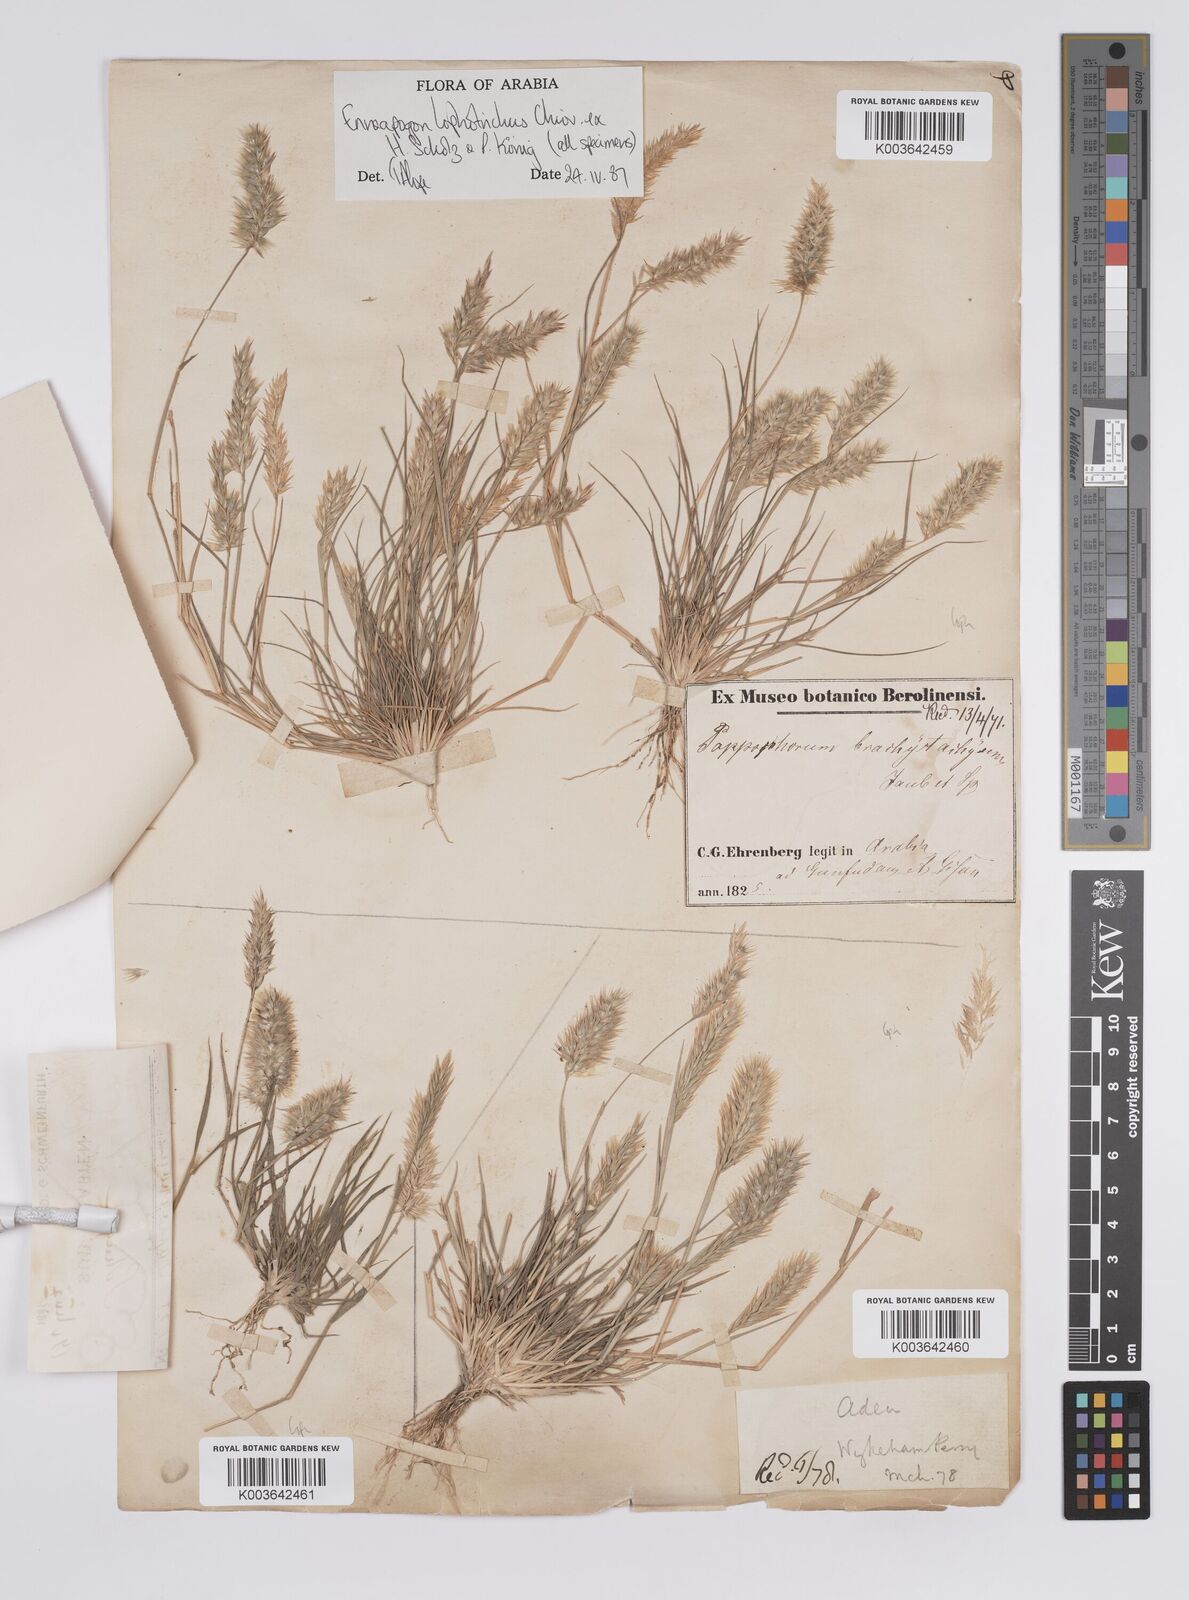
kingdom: Plantae
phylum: Tracheophyta
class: Liliopsida
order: Poales
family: Poaceae
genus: Enneapogon
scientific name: Enneapogon lophotrichus
